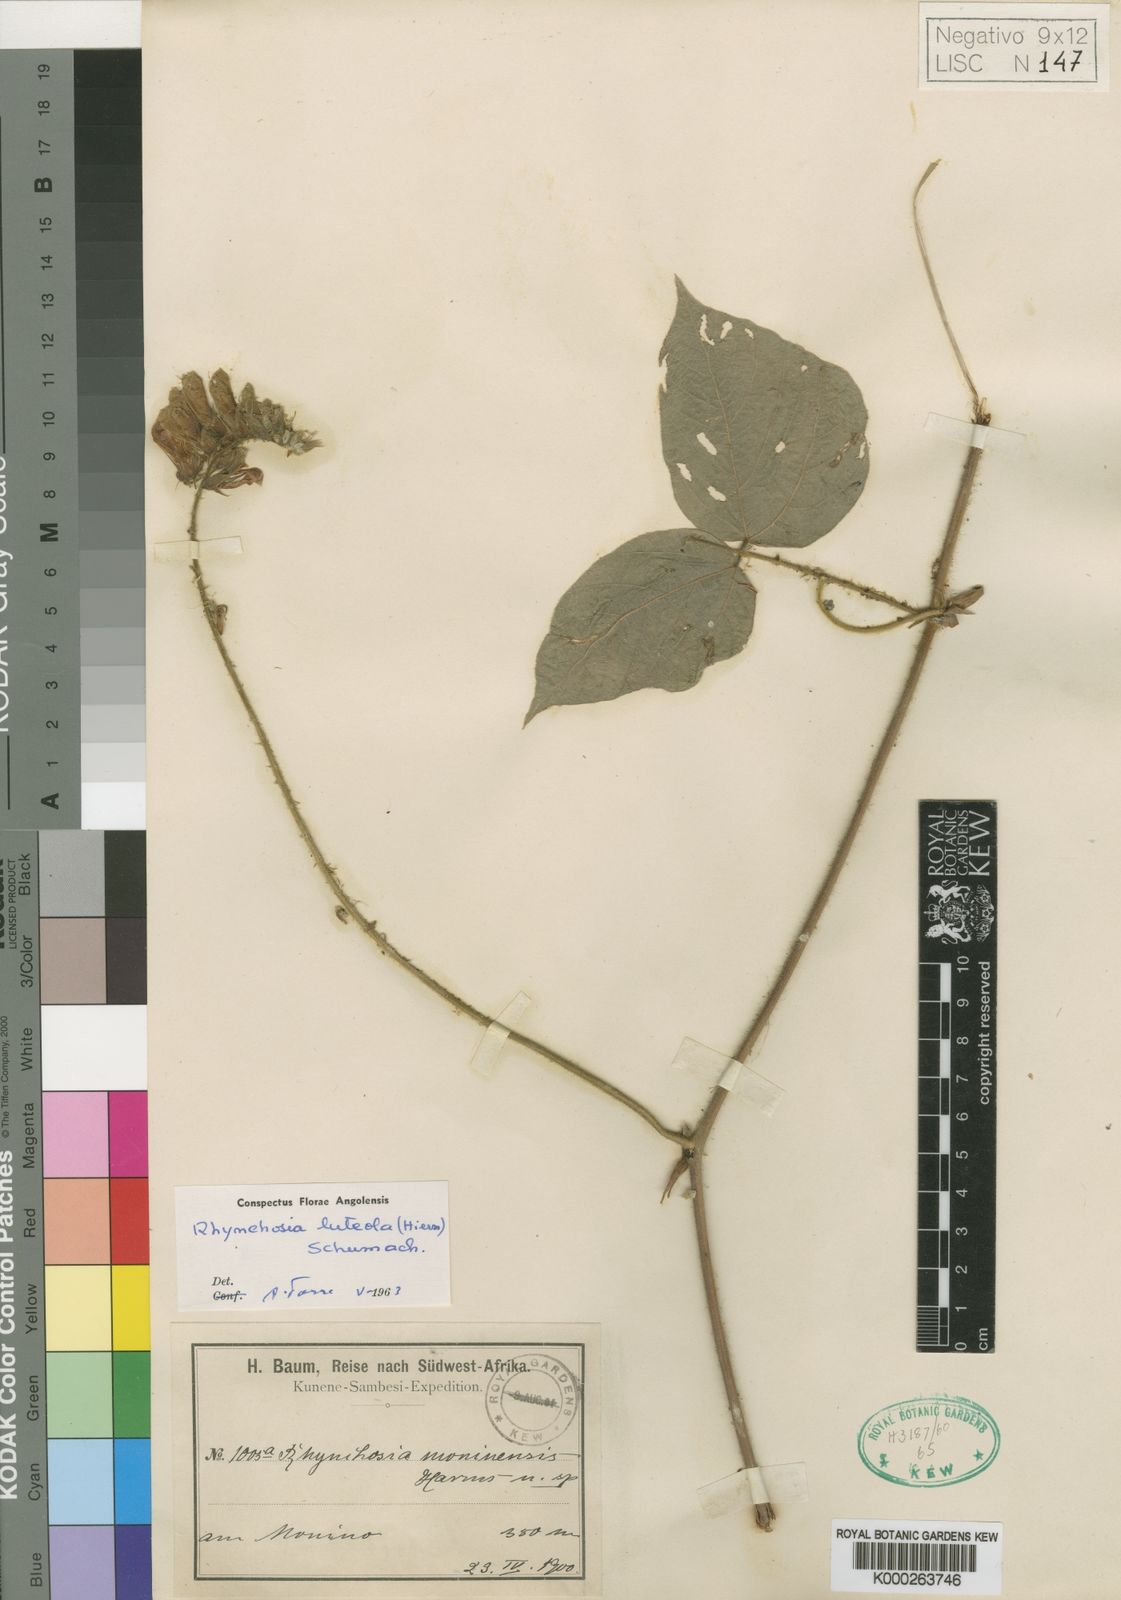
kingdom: Plantae
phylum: Tracheophyta
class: Magnoliopsida
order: Fabales
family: Fabaceae
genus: Rhynchosia
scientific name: Rhynchosia luteola
